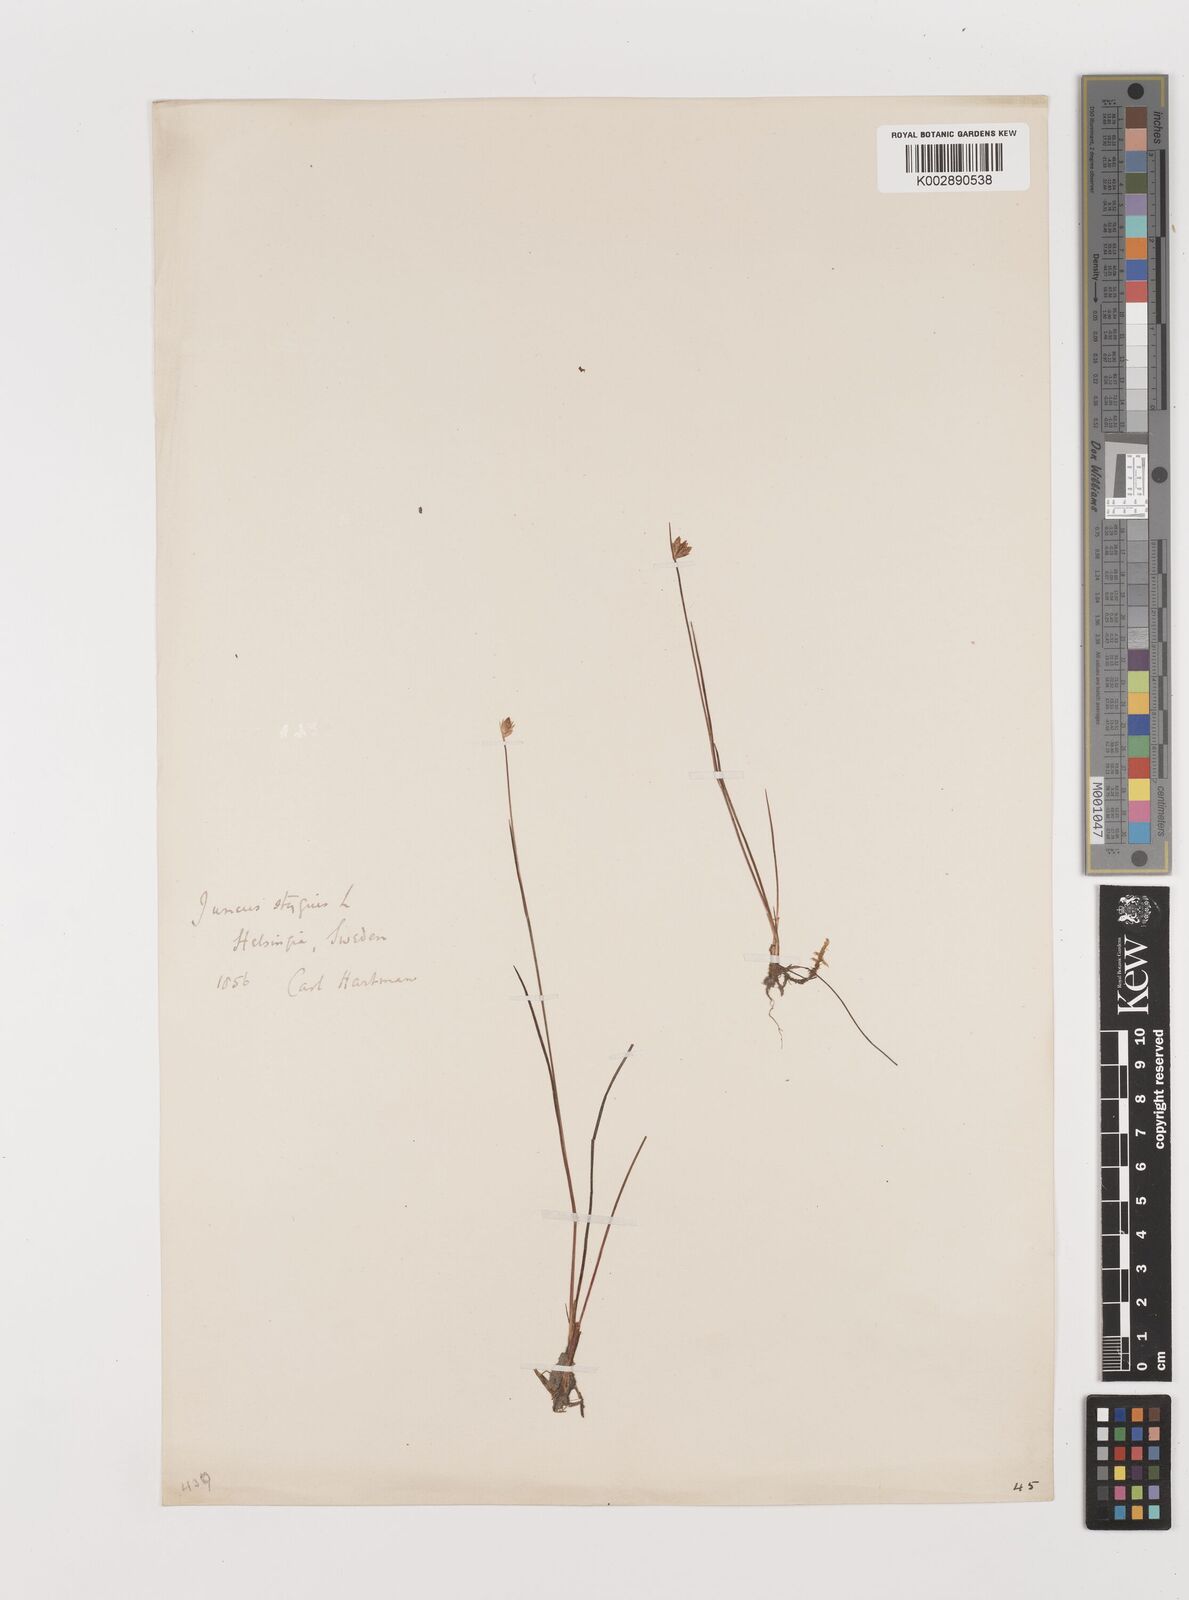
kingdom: Plantae
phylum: Tracheophyta
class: Liliopsida
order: Poales
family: Juncaceae
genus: Juncus
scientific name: Juncus stygius
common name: Bog rush
